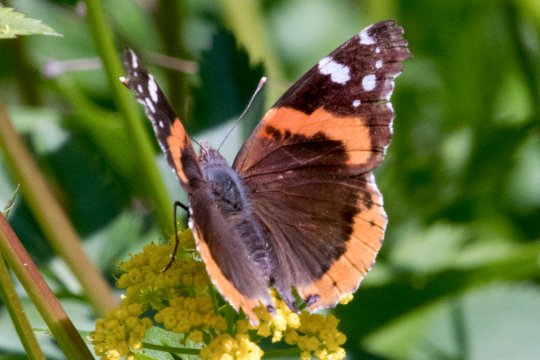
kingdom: Animalia
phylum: Arthropoda
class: Insecta
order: Lepidoptera
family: Nymphalidae
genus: Vanessa
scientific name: Vanessa atalanta
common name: Red Admiral
